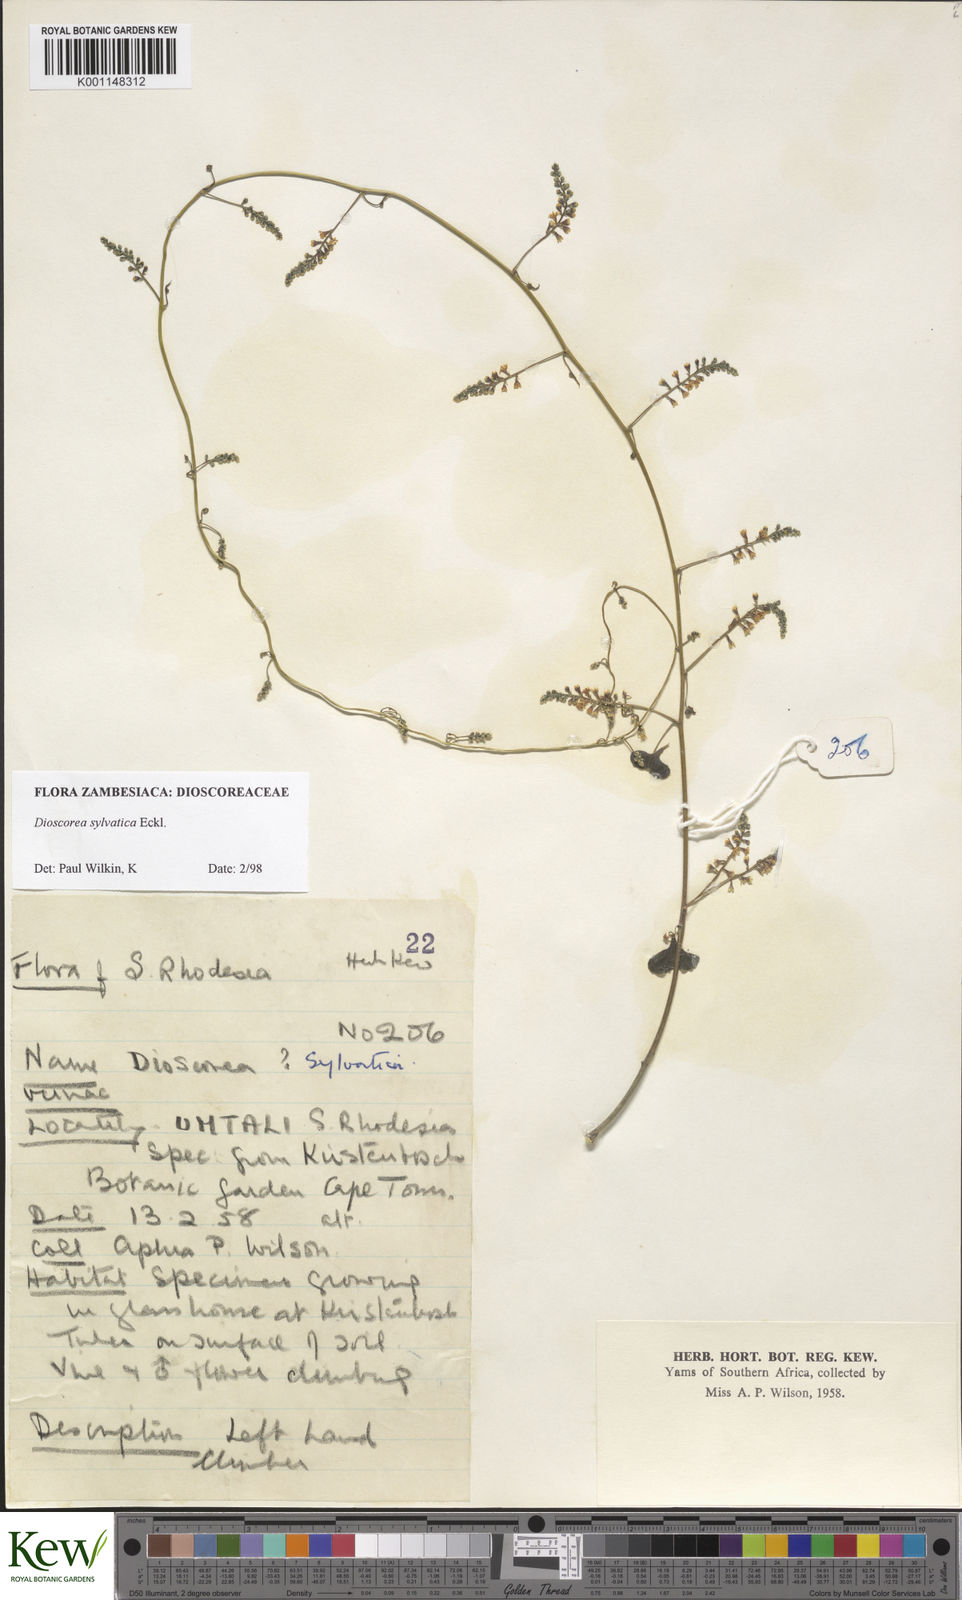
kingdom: Plantae
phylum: Tracheophyta
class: Liliopsida
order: Dioscoreales
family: Dioscoreaceae
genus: Dioscorea
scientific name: Dioscorea sylvatica
